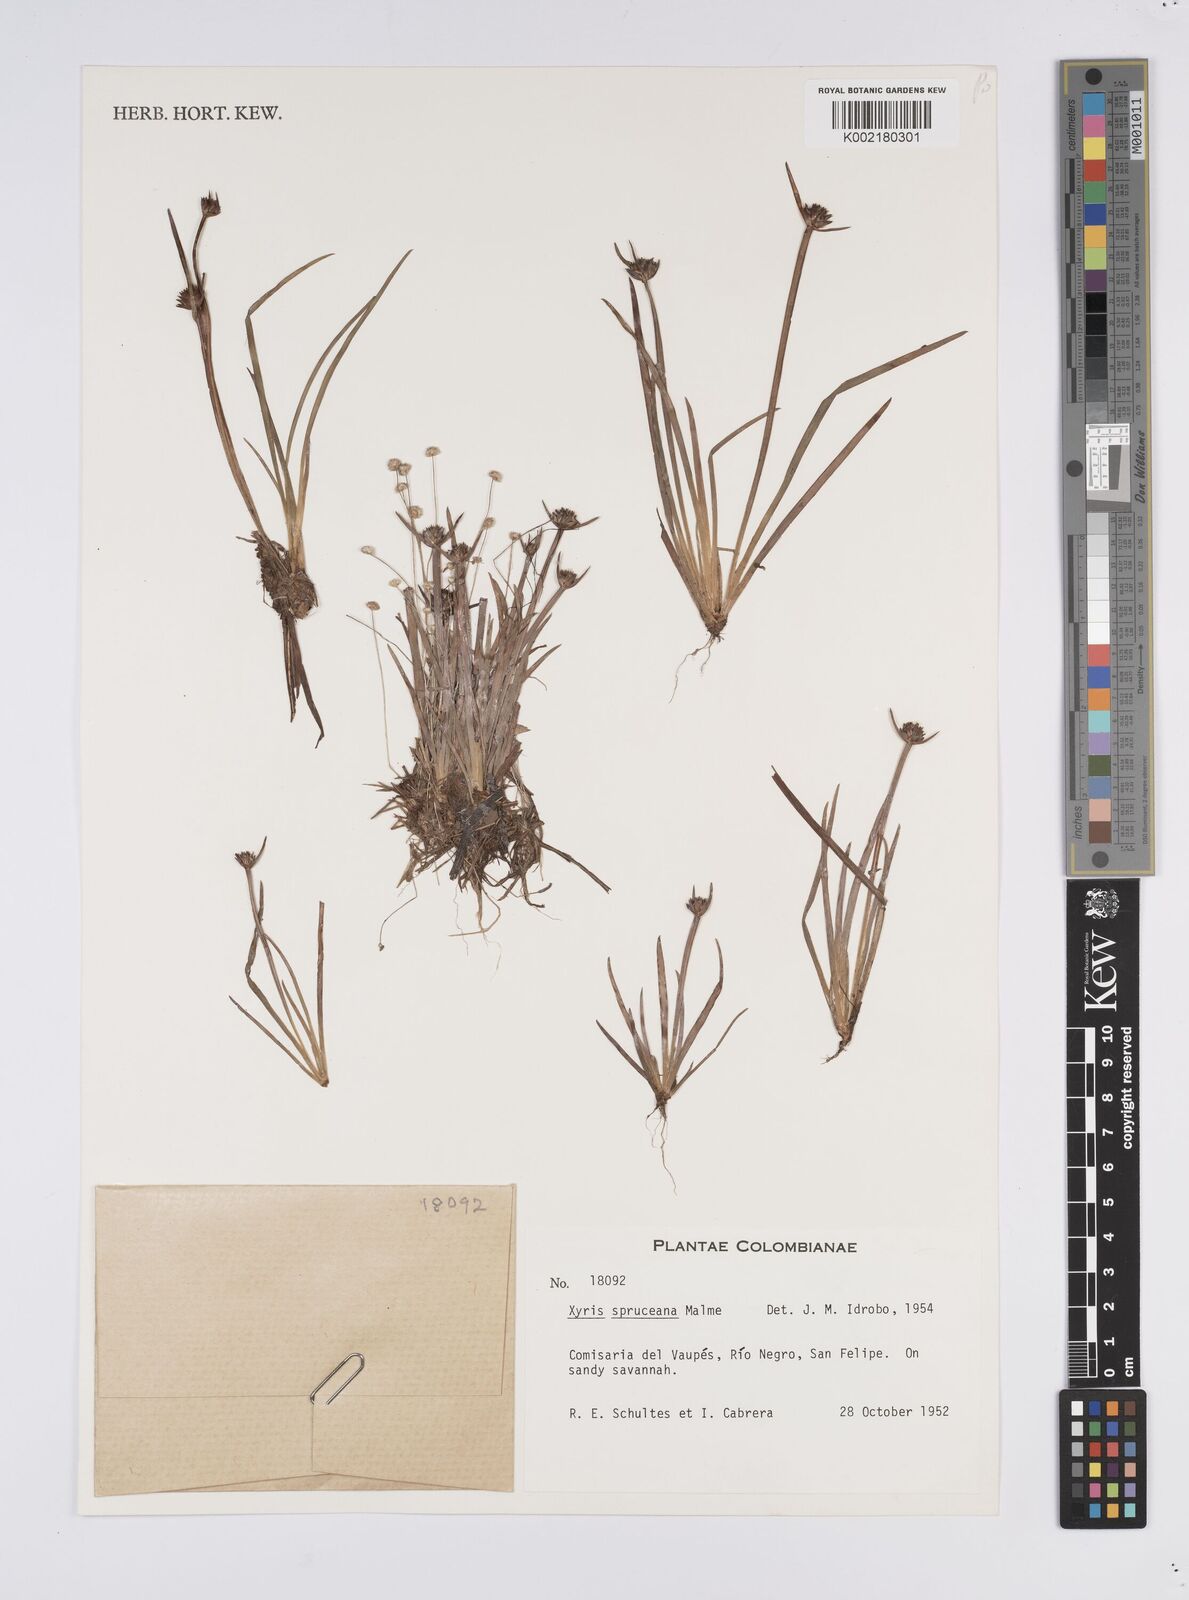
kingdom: Plantae
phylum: Tracheophyta
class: Liliopsida
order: Poales
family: Xyridaceae
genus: Xyris
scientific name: Xyris spruceana
